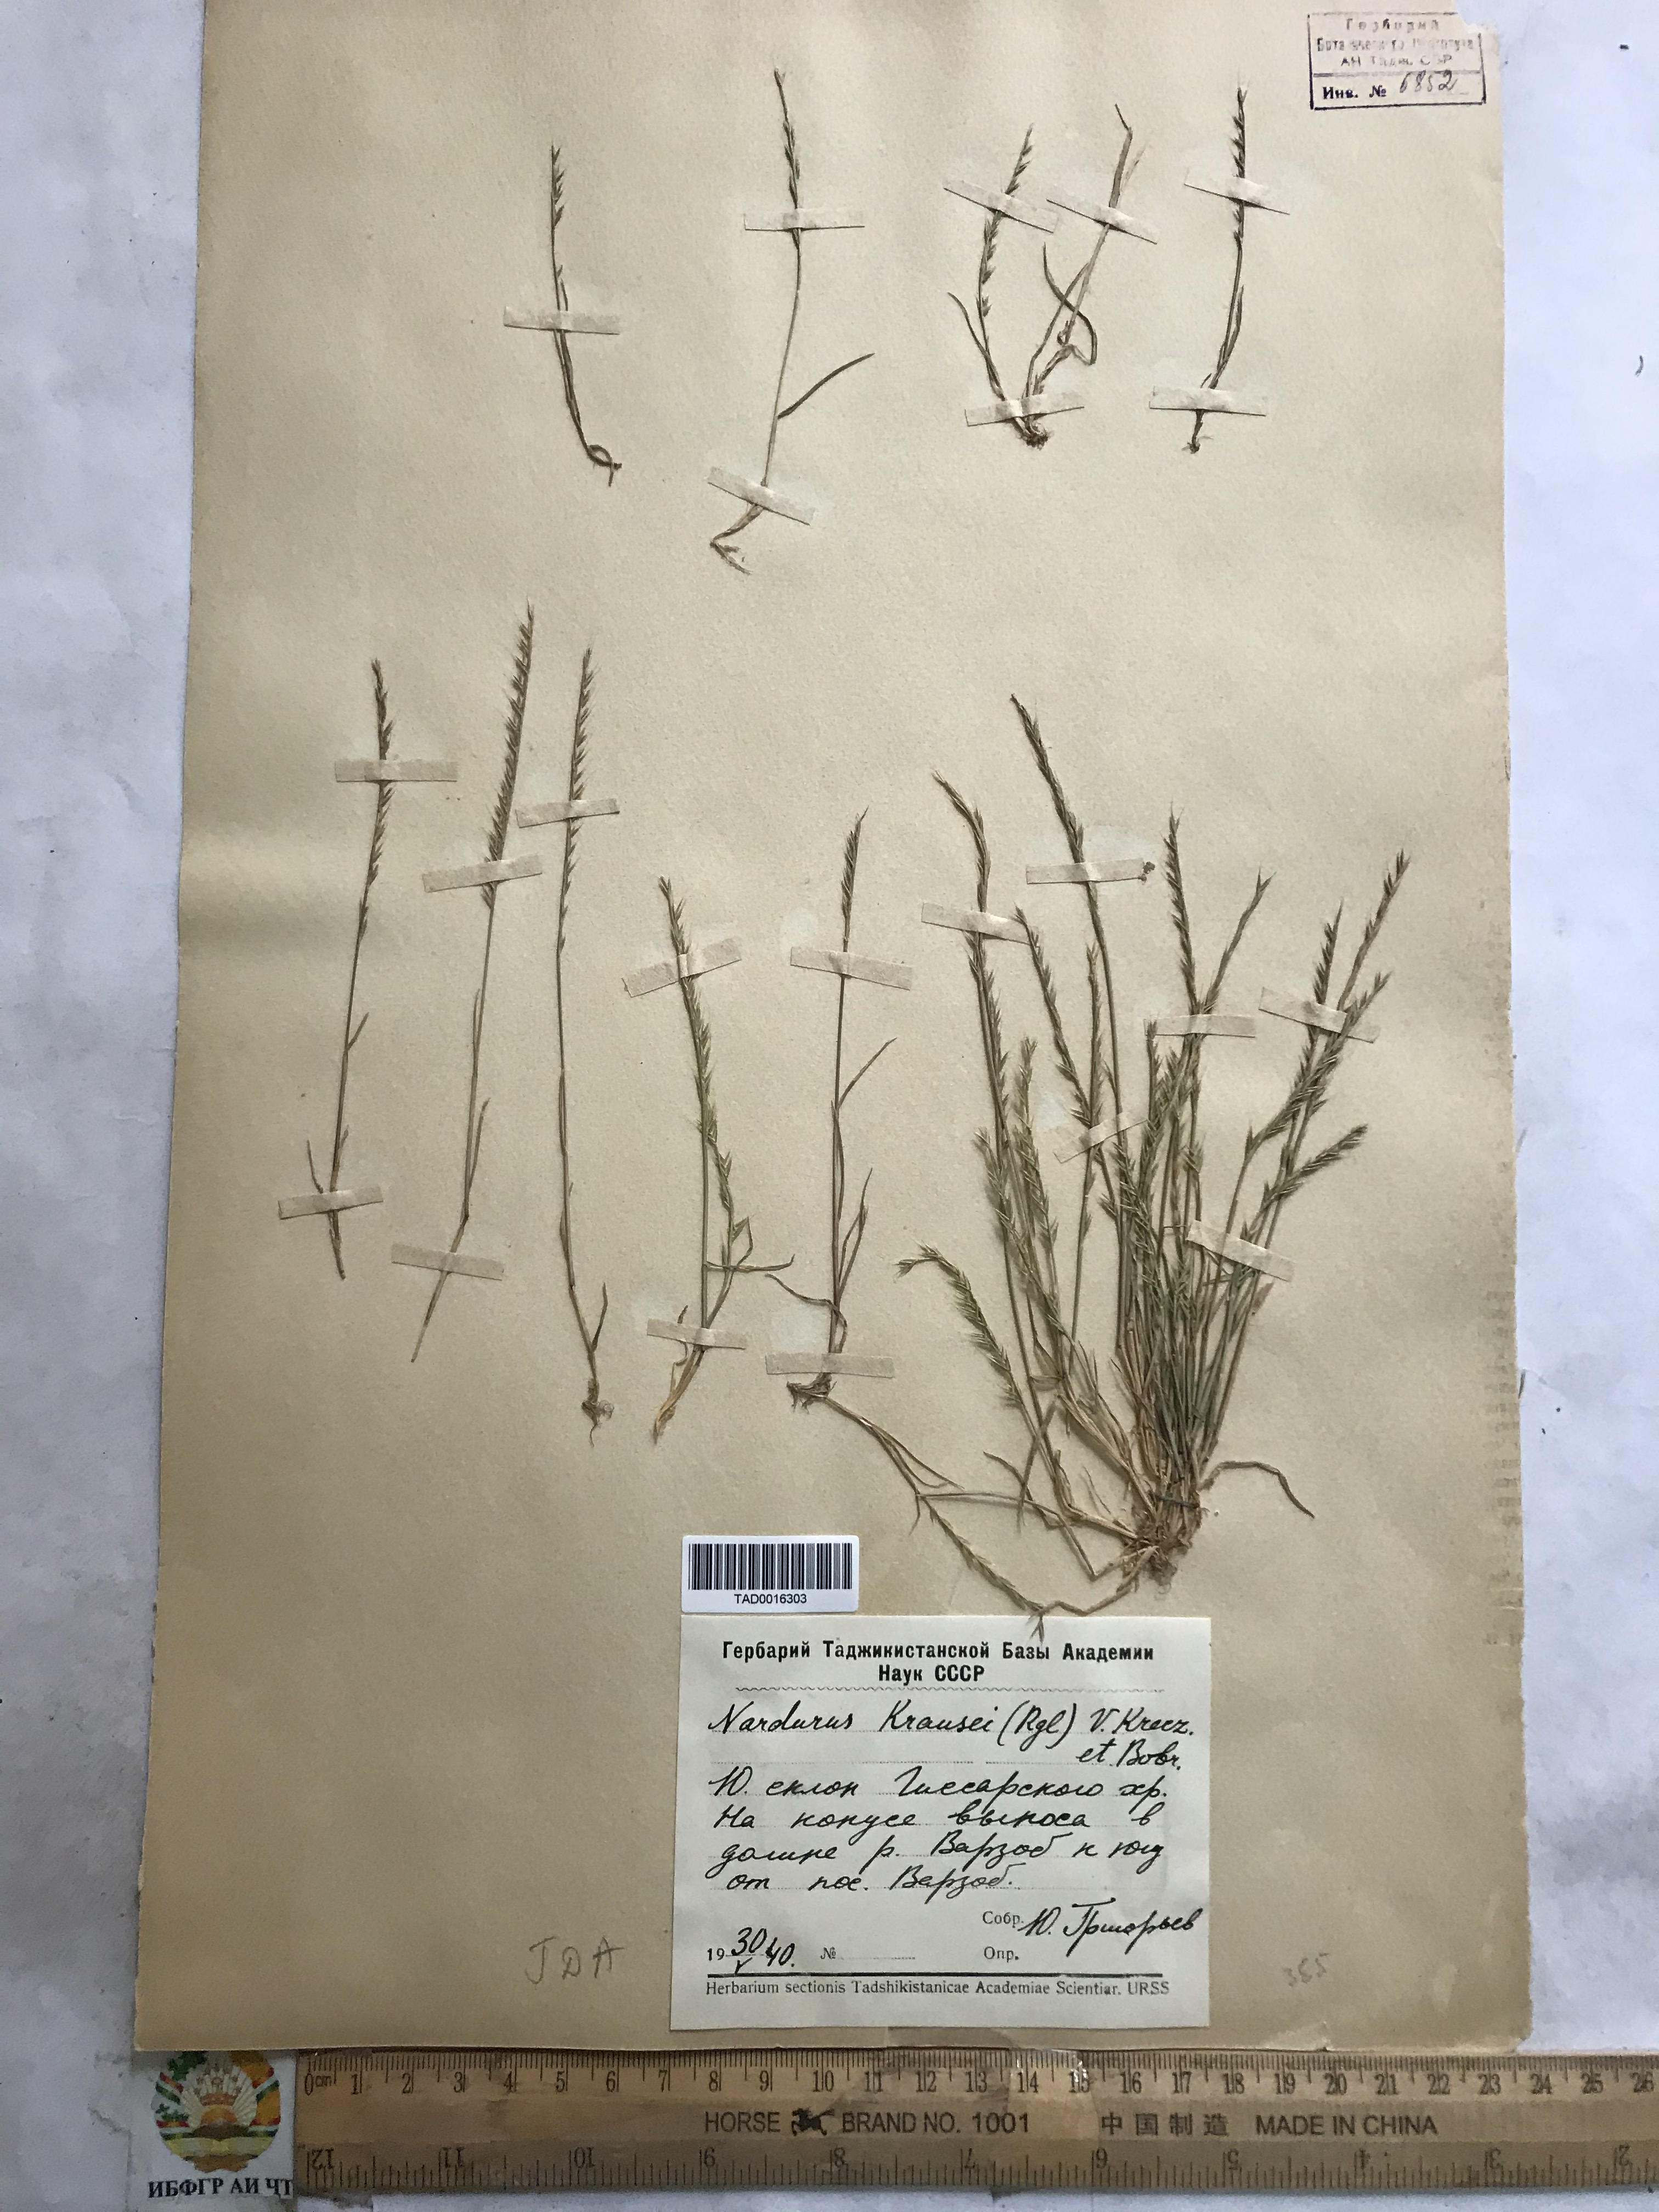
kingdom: Plantae
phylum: Tracheophyta
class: Liliopsida
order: Poales
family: Poaceae
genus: Festuca
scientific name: Festuca maritima
